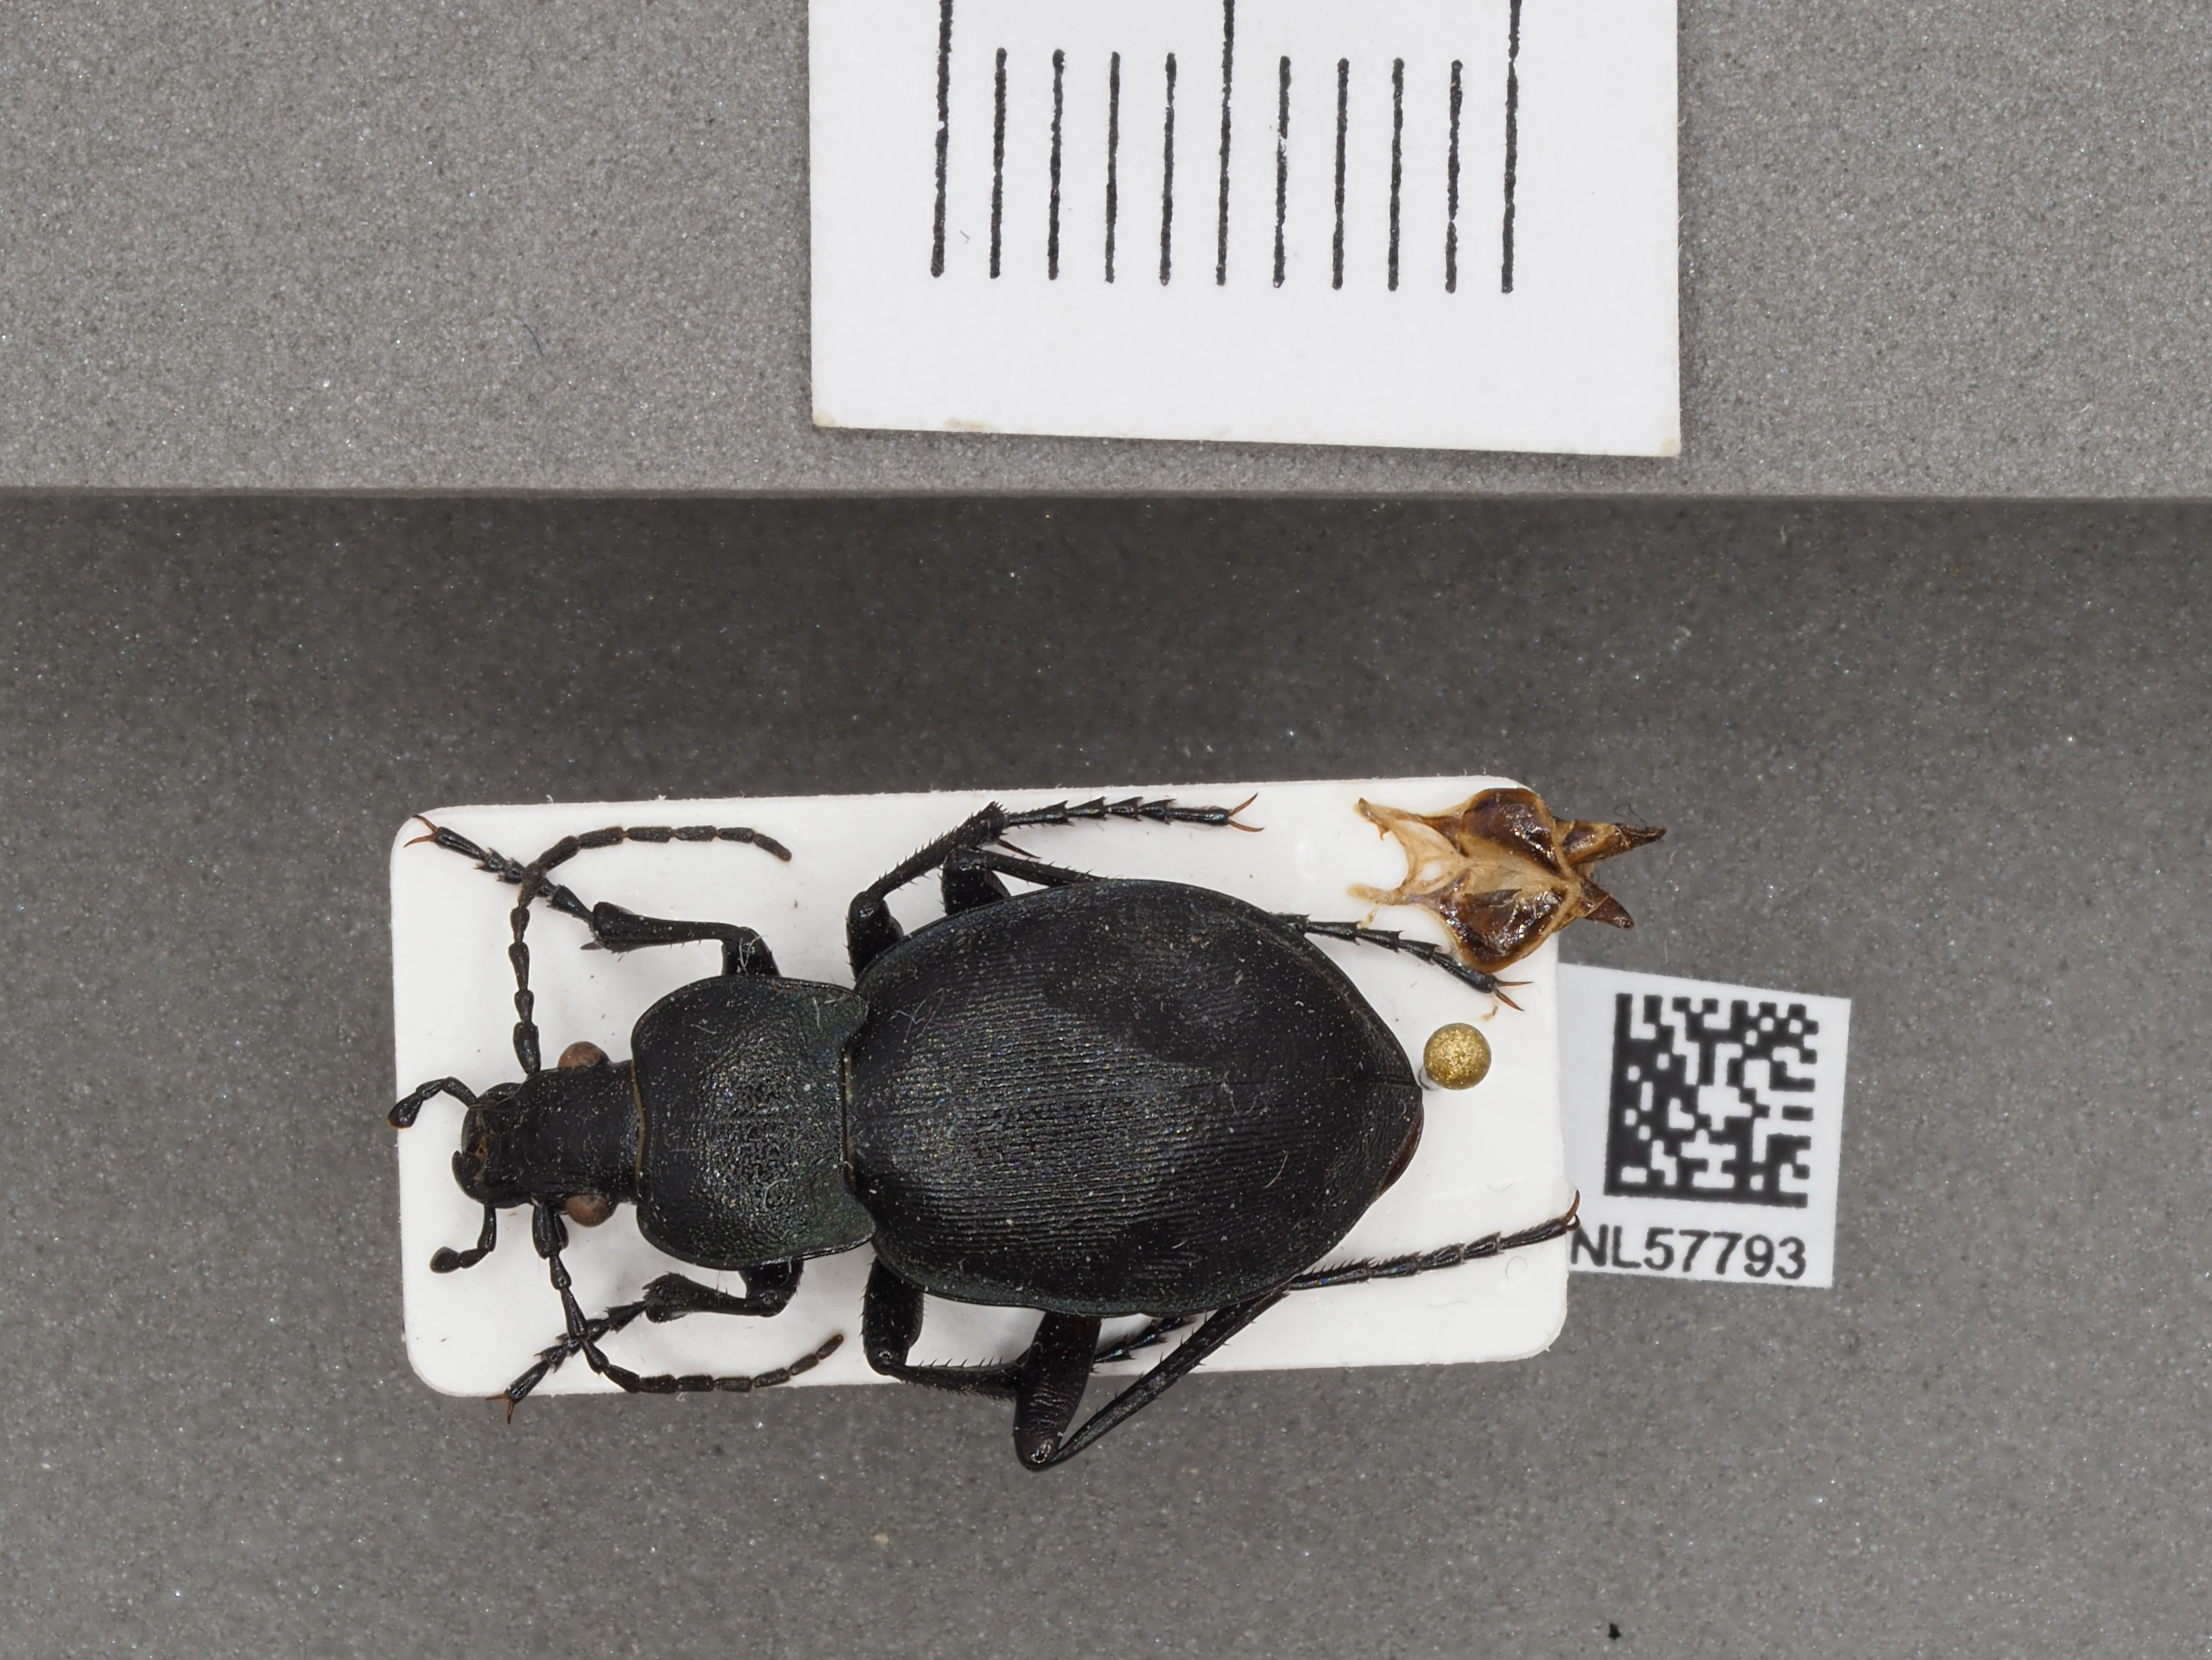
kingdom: Animalia
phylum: Arthropoda
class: Insecta
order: Coleoptera
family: Carabidae
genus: Carabus
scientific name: Carabus convexus
